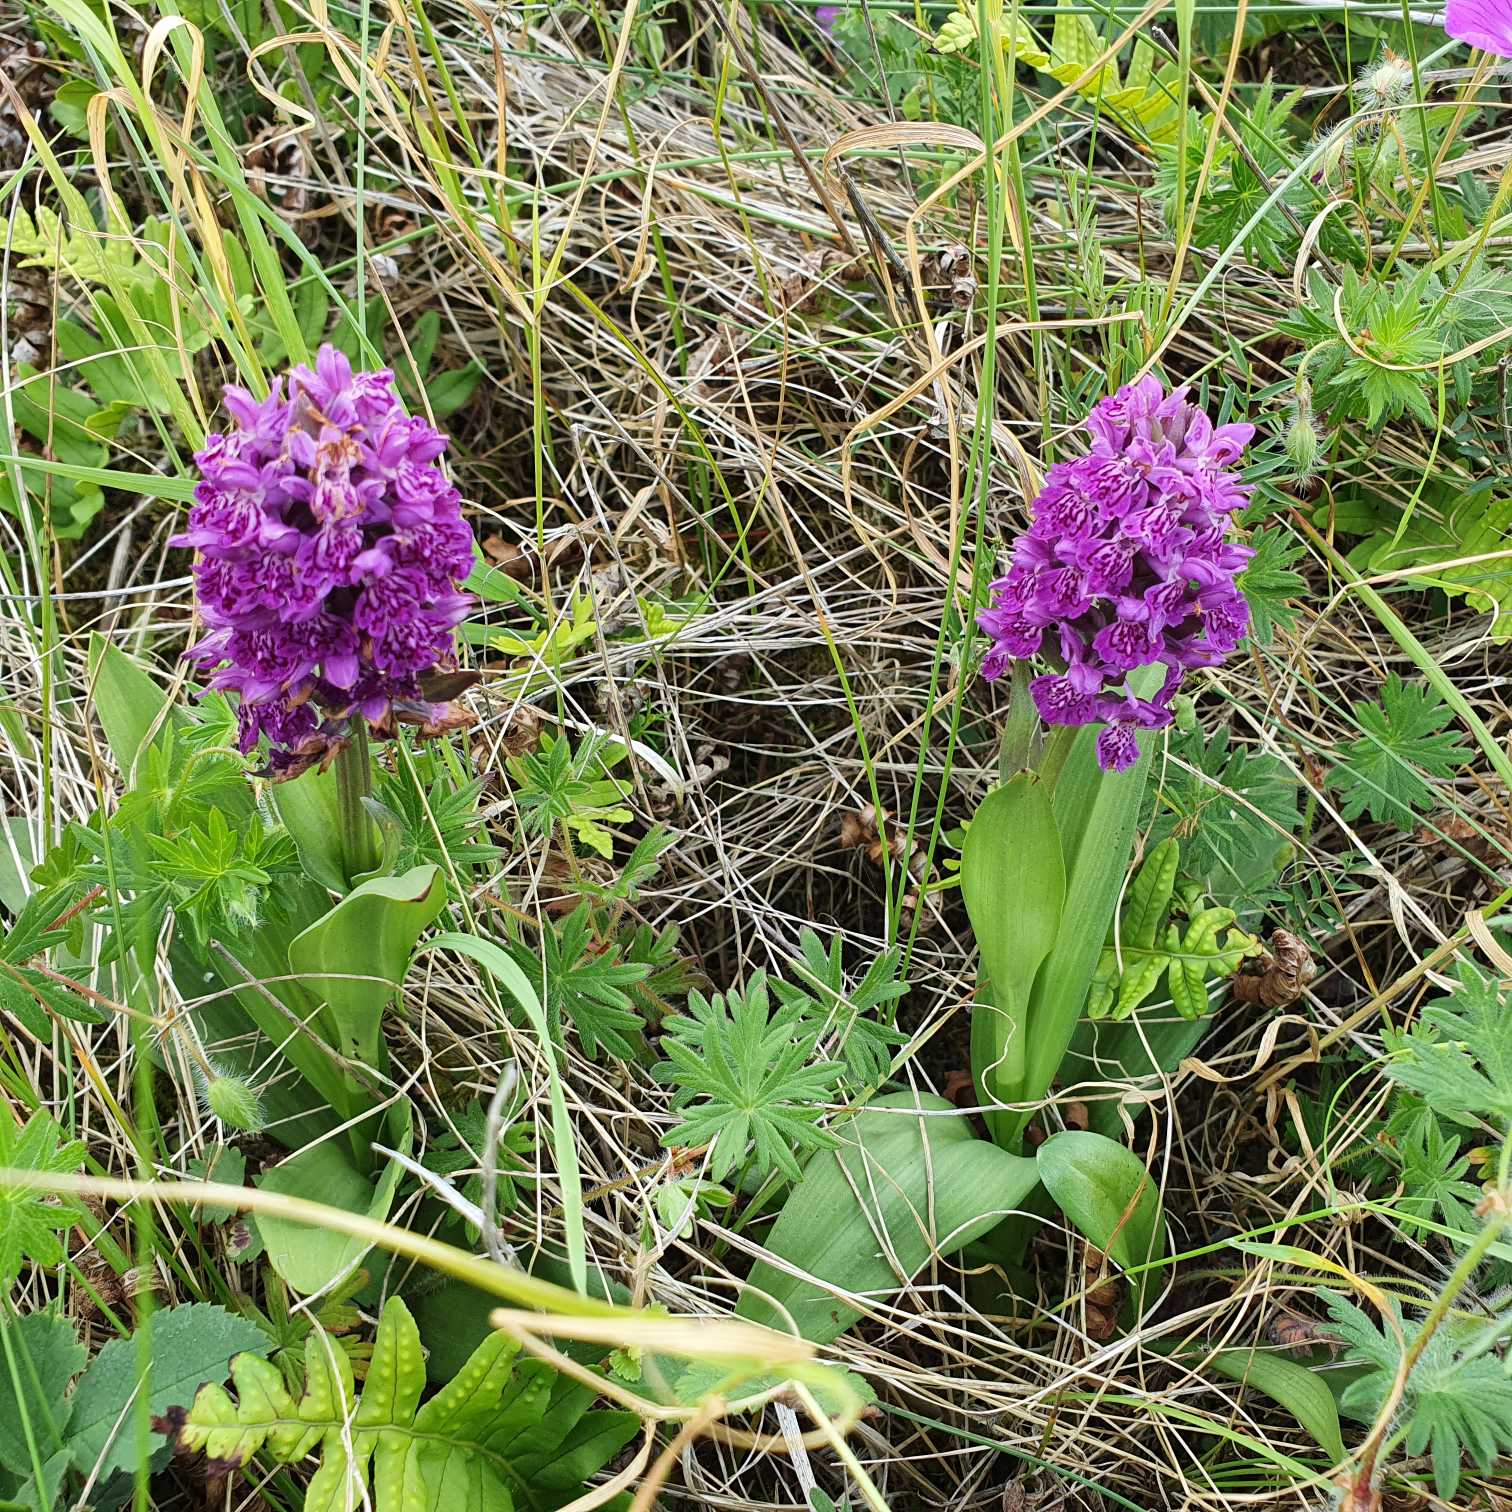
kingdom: Plantae
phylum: Tracheophyta
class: Liliopsida
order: Asparagales
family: Orchidaceae
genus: Dactylorhiza
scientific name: Dactylorhiza majalis
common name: Purpur-gøgeurt
